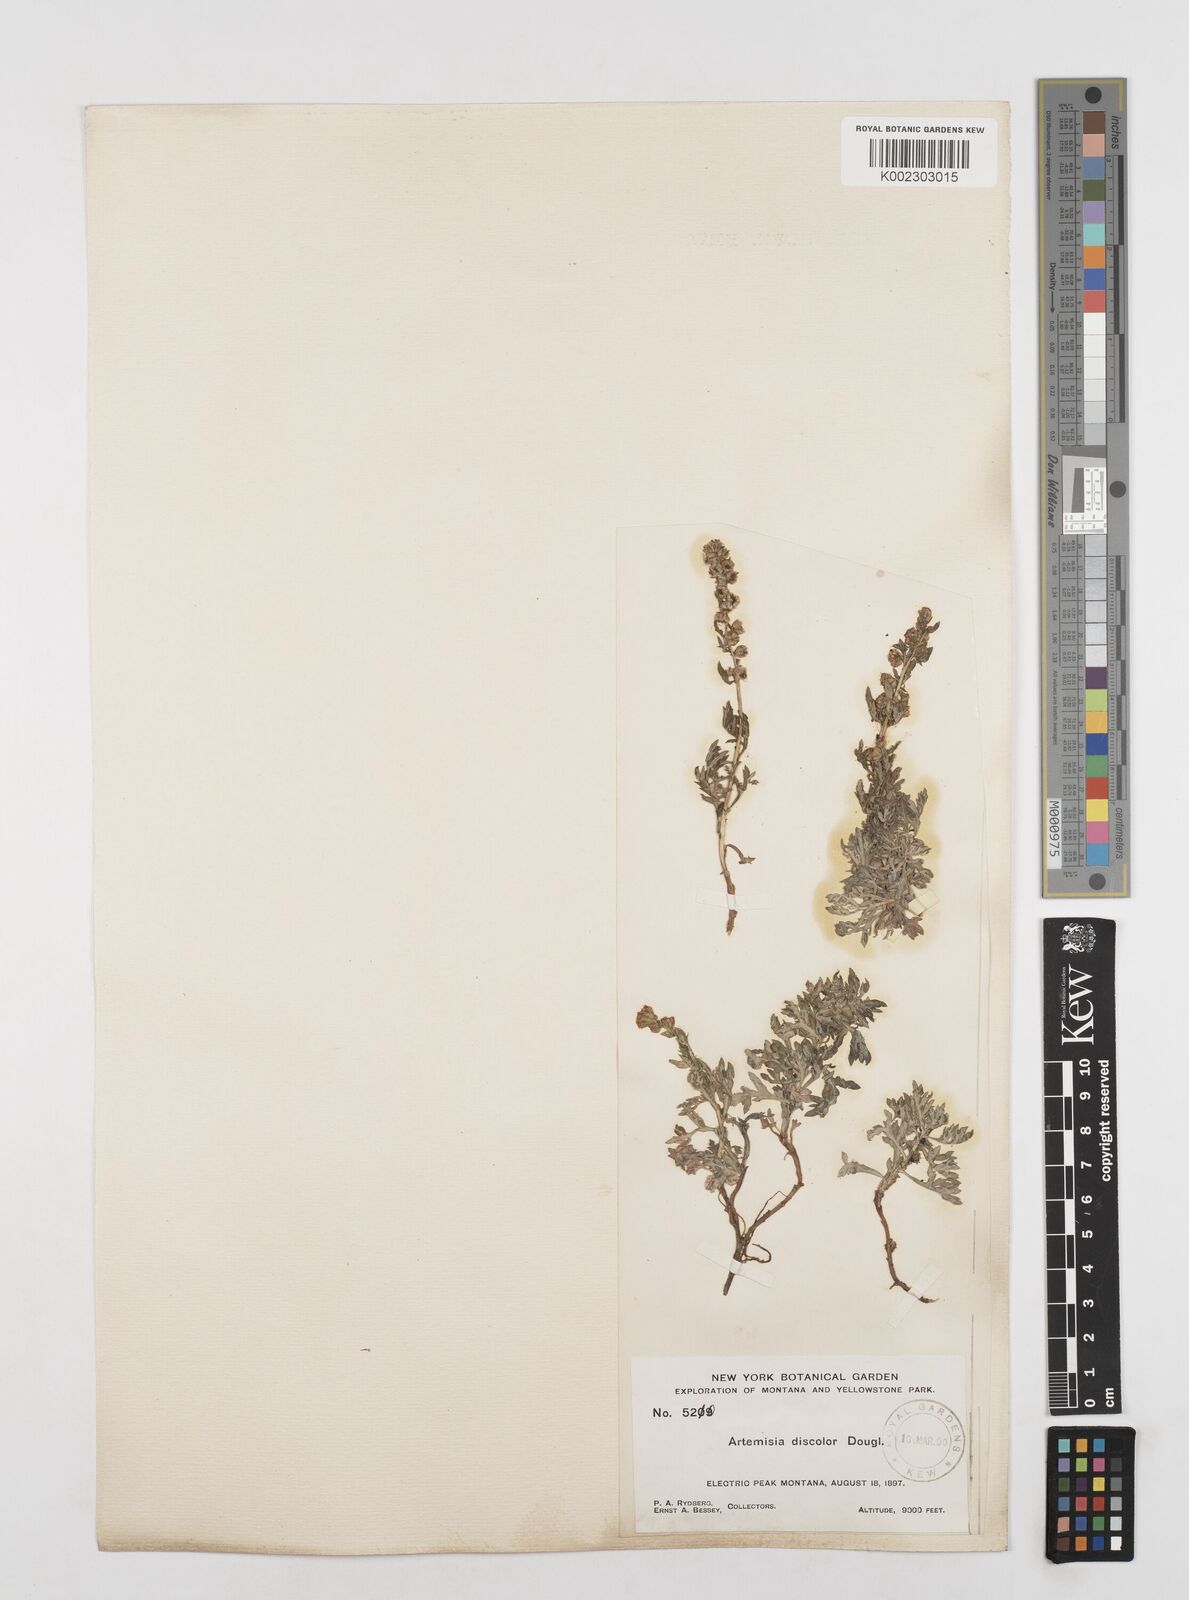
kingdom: Plantae
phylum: Tracheophyta
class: Magnoliopsida
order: Asterales
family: Asteraceae
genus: Artemisia
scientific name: Artemisia michauxiana
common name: Lemon sagewort
